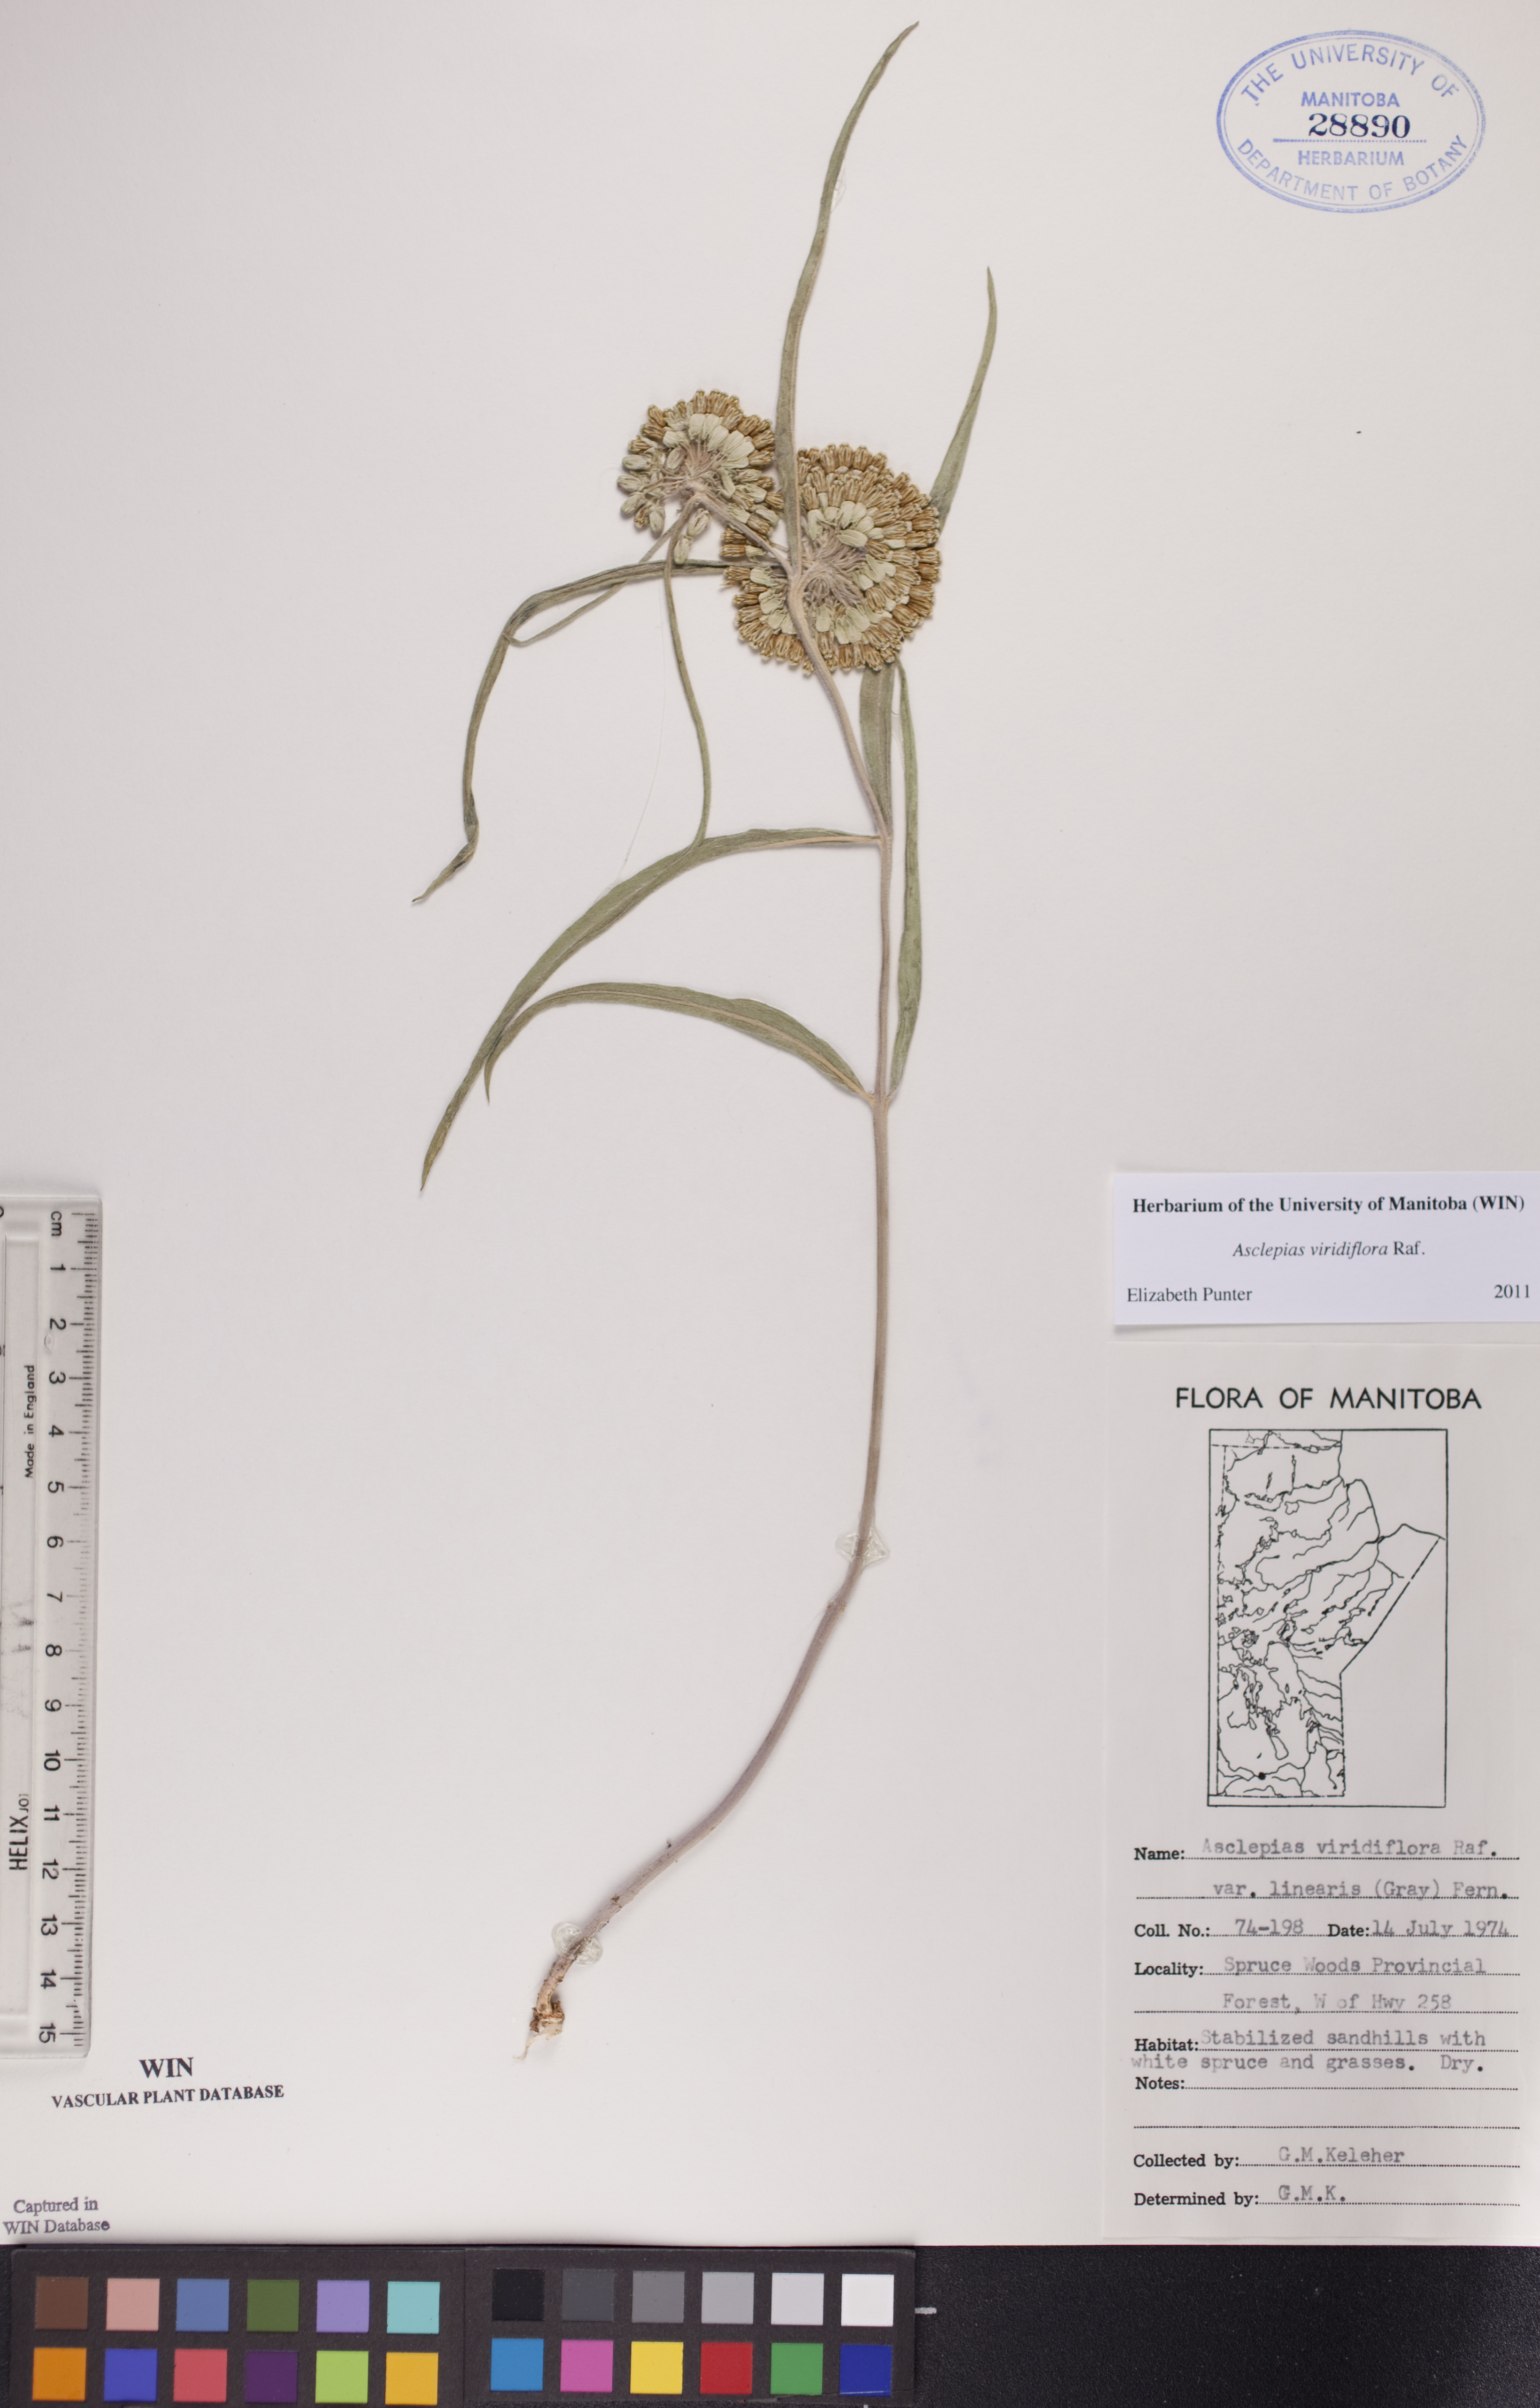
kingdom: Plantae
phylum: Tracheophyta
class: Magnoliopsida
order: Gentianales
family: Apocynaceae
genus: Asclepias
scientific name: Asclepias linearis
